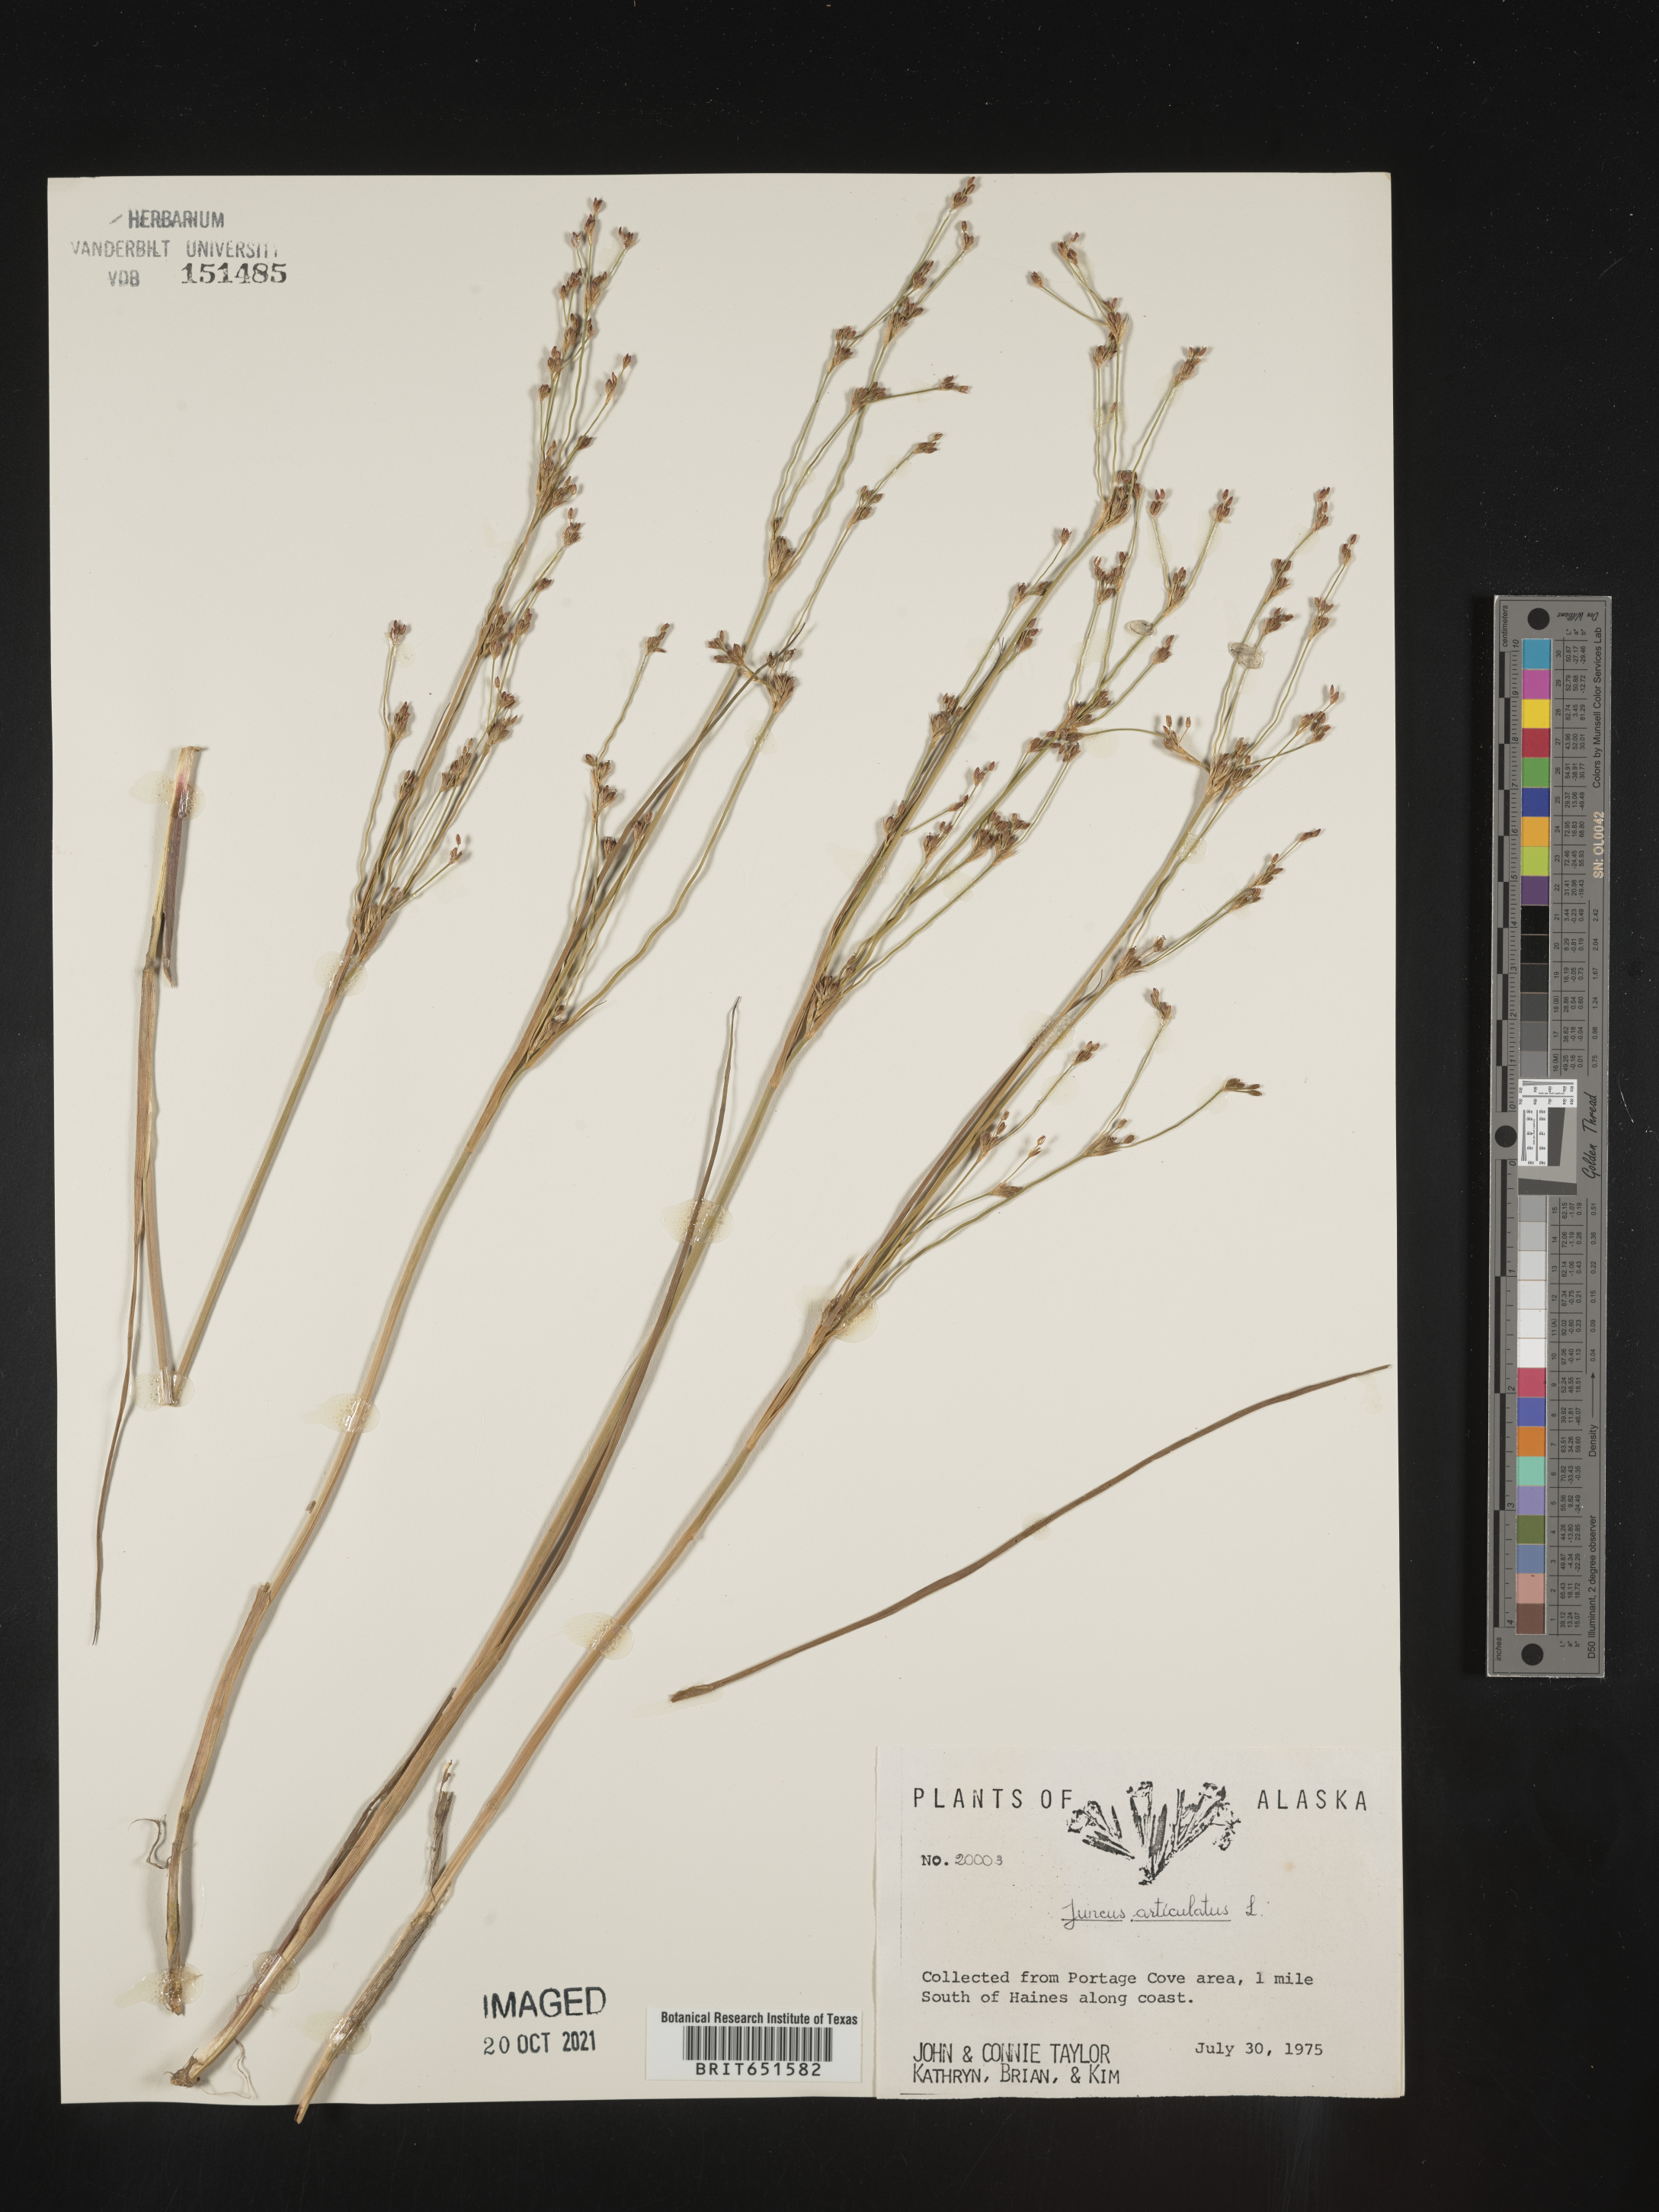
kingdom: Plantae
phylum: Tracheophyta
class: Liliopsida
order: Poales
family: Juncaceae
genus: Juncus
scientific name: Juncus articulatus
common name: Jointed rush
